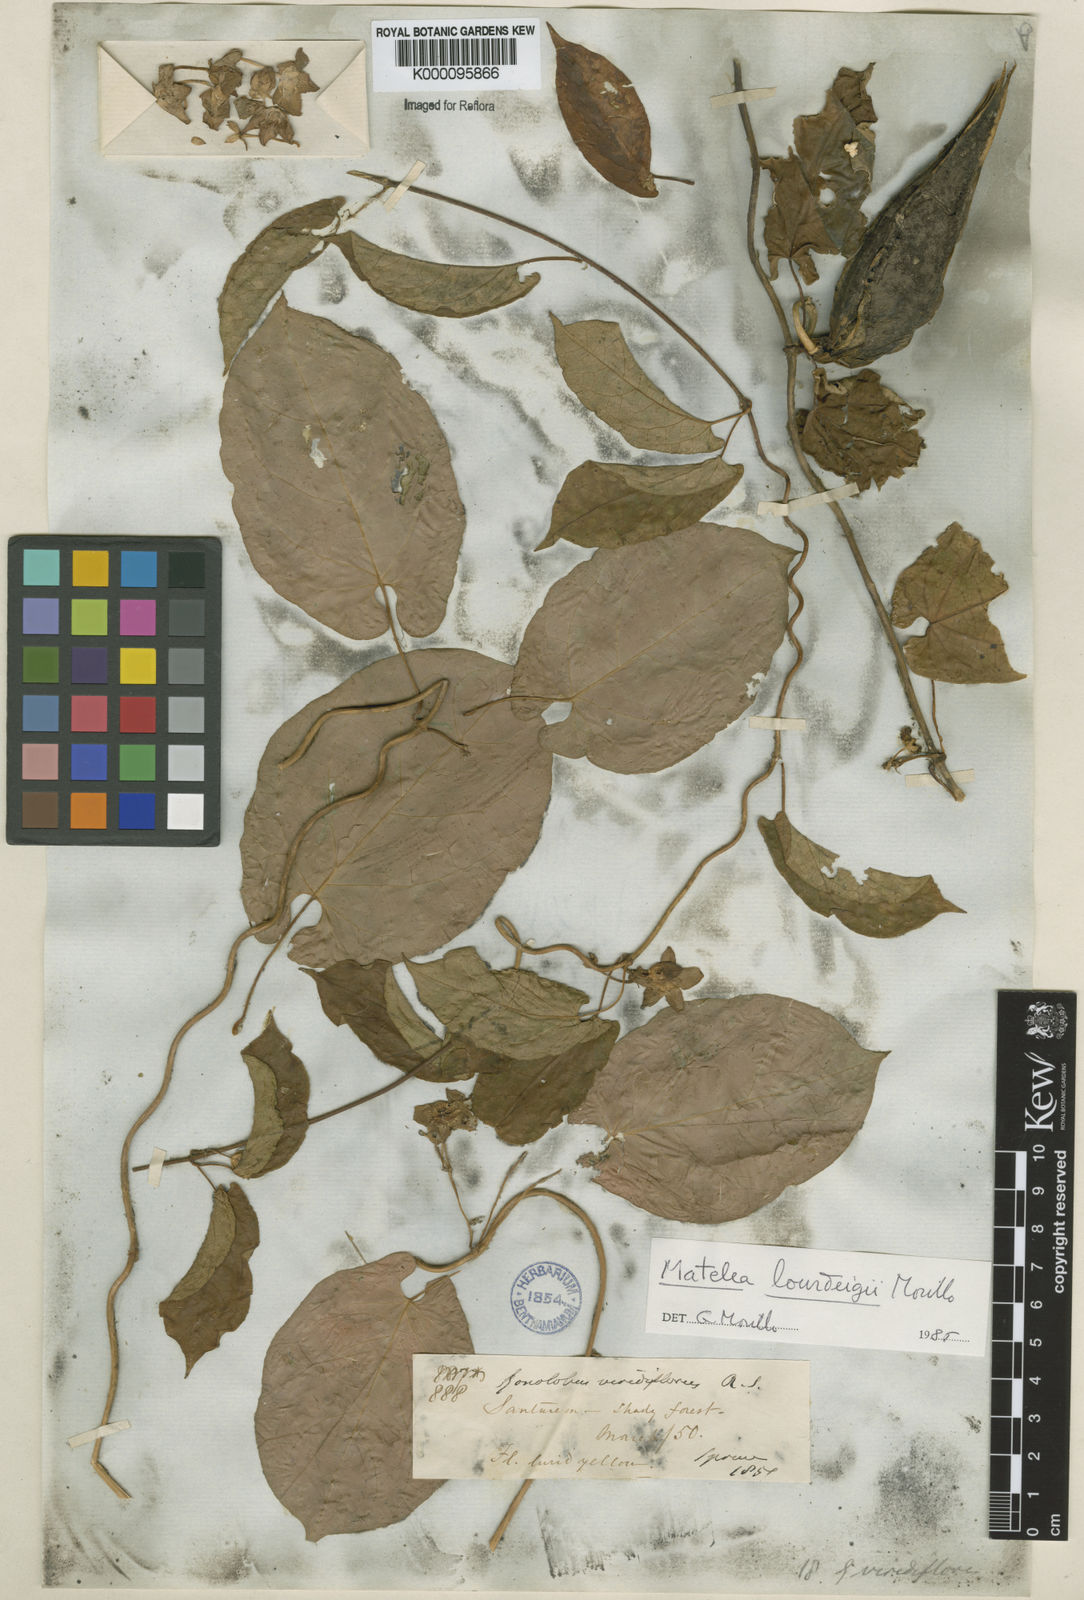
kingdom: Plantae
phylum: Tracheophyta
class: Magnoliopsida
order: Gentianales
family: Apocynaceae
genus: Chloropetalum
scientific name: Chloropetalum surinamense
